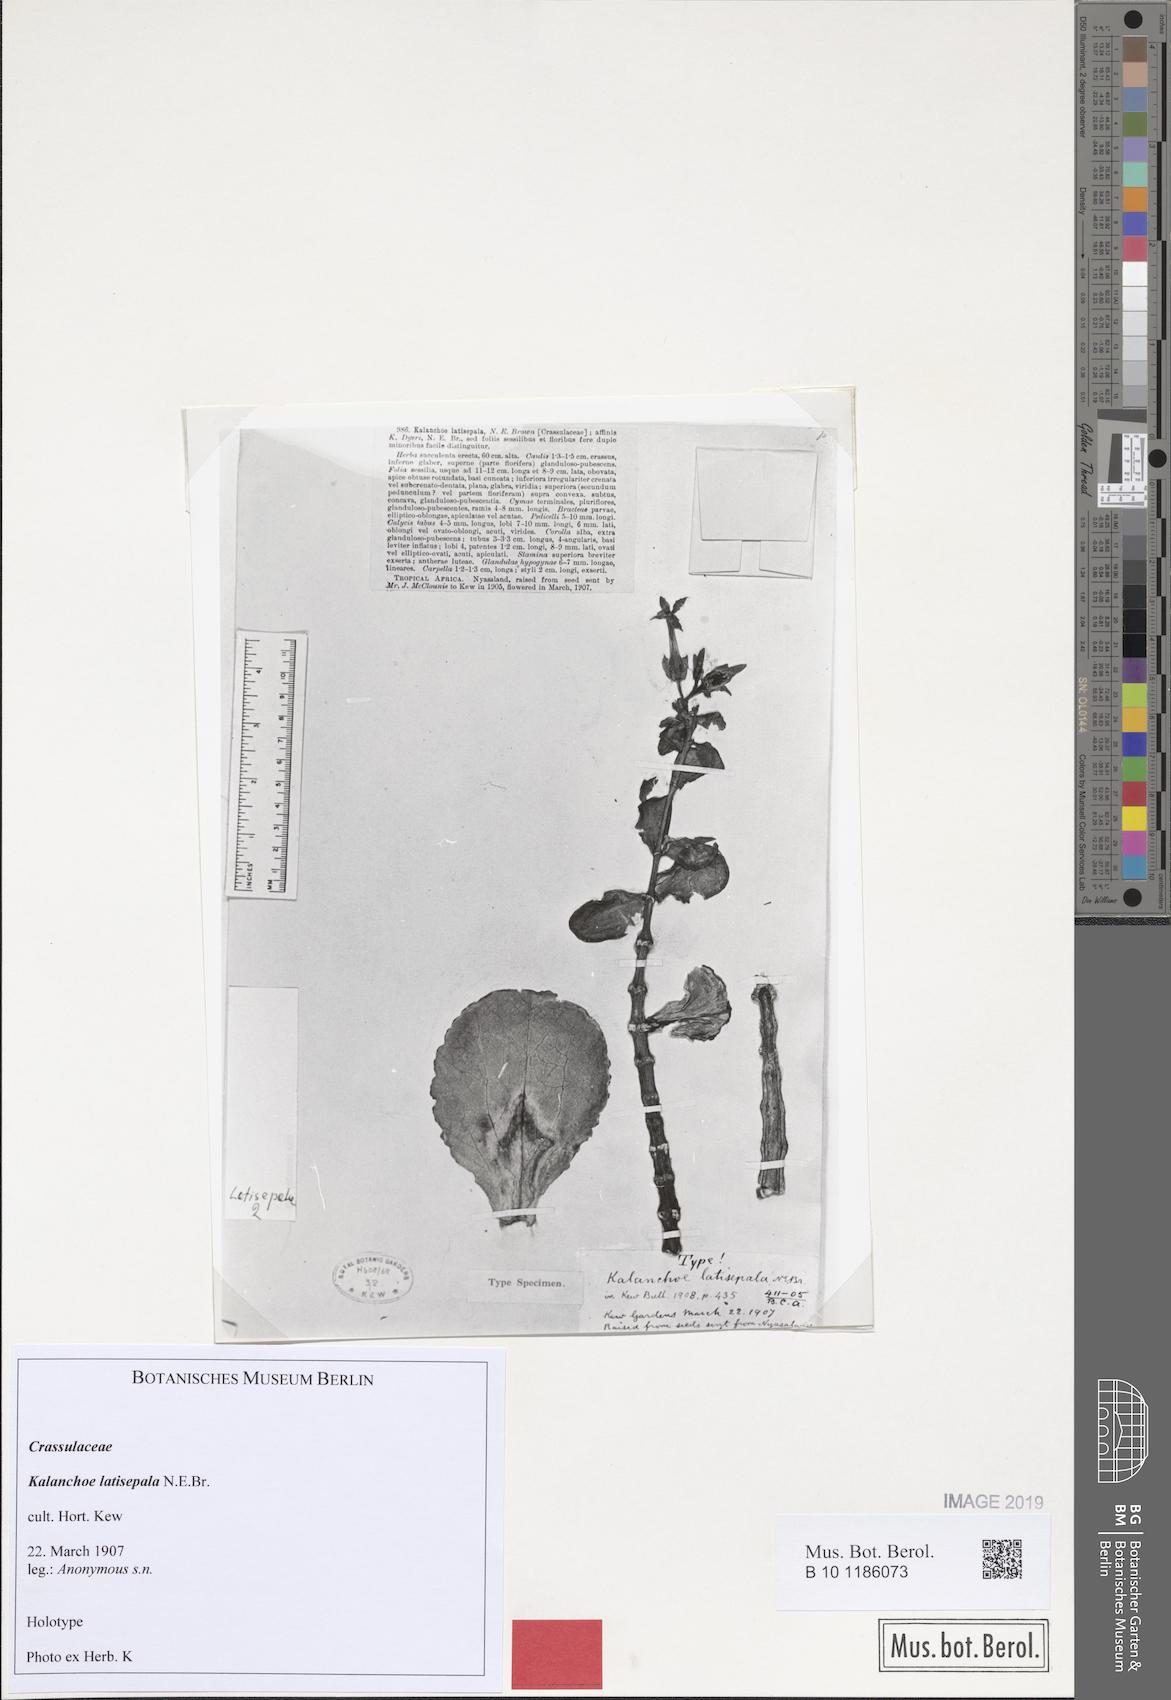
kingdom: Plantae
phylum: Tracheophyta
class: Magnoliopsida
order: Saxifragales
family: Crassulaceae
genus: Kalanchoe
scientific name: Kalanchoe latisepala
